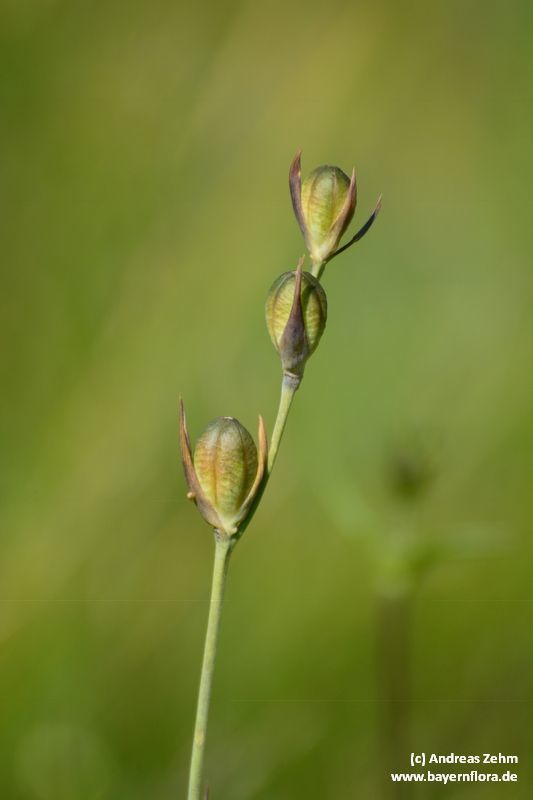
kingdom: Plantae
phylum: Tracheophyta
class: Liliopsida
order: Asparagales
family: Iridaceae
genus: Gladiolus
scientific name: Gladiolus palustris
